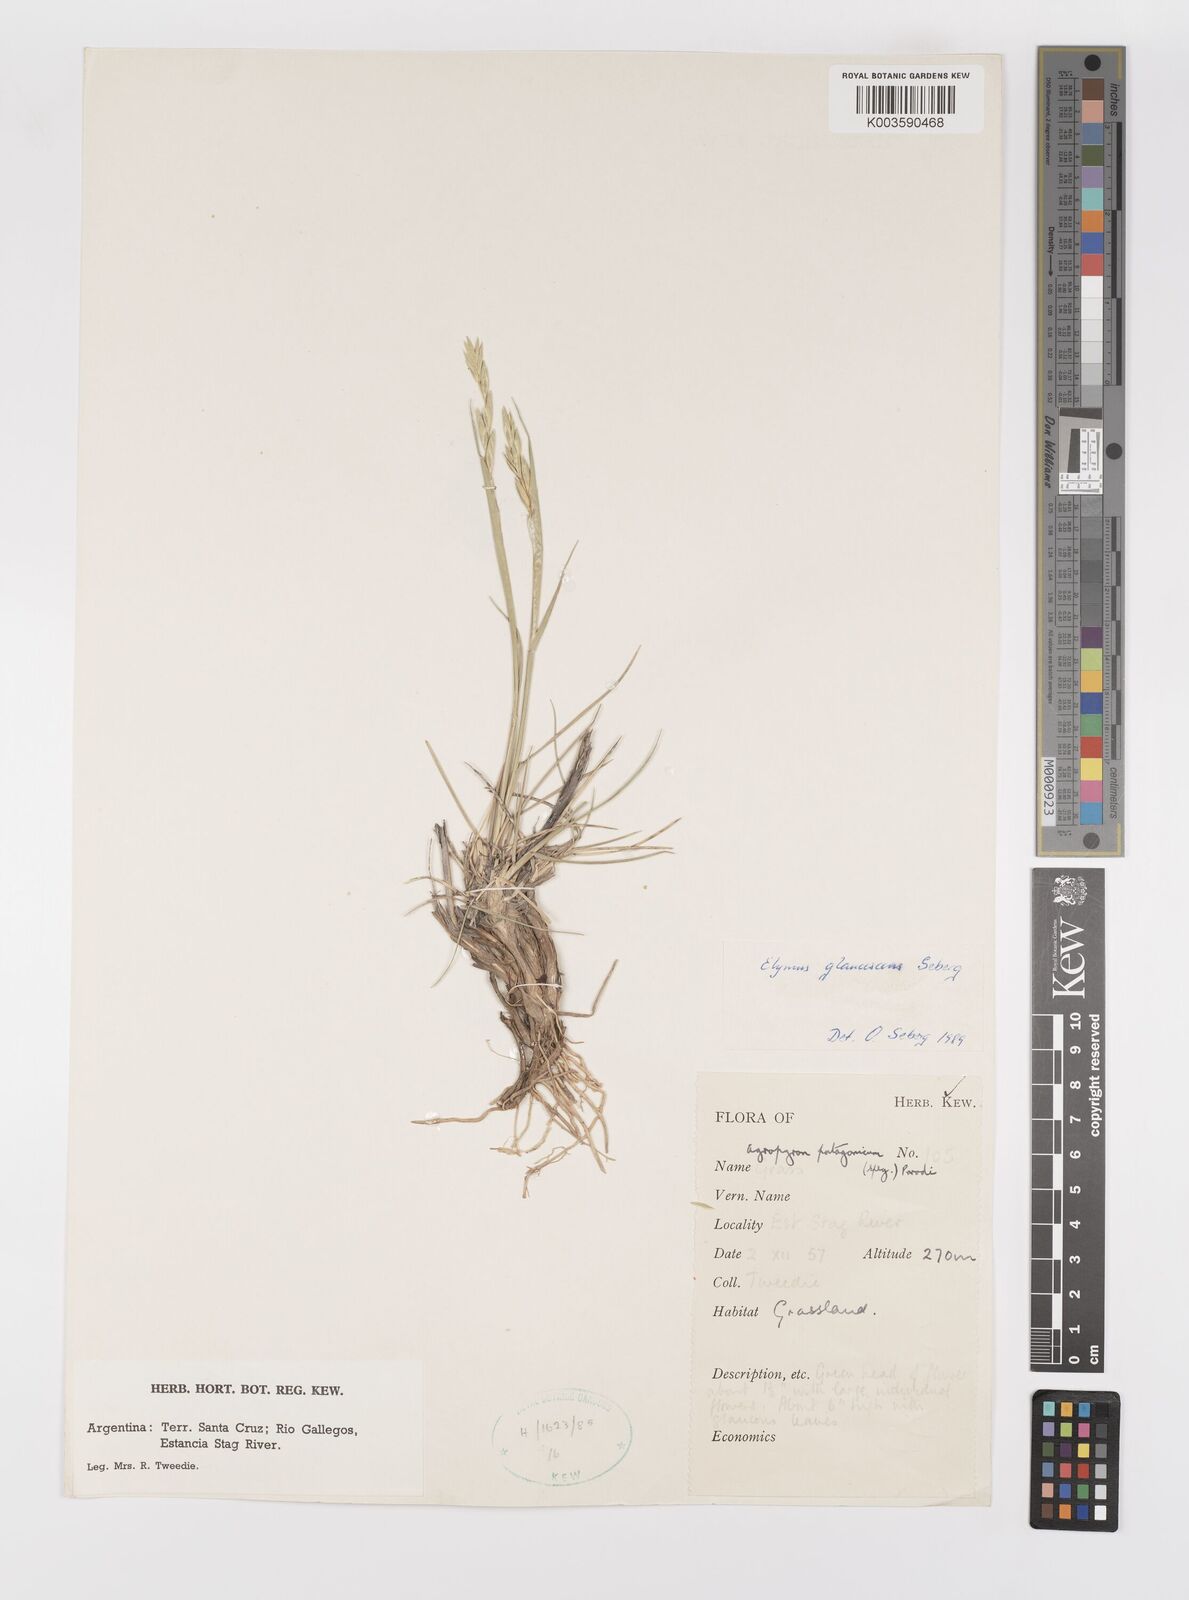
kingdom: Plantae
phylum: Tracheophyta
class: Liliopsida
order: Poales
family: Poaceae
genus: Elymus
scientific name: Elymus magellanicus
